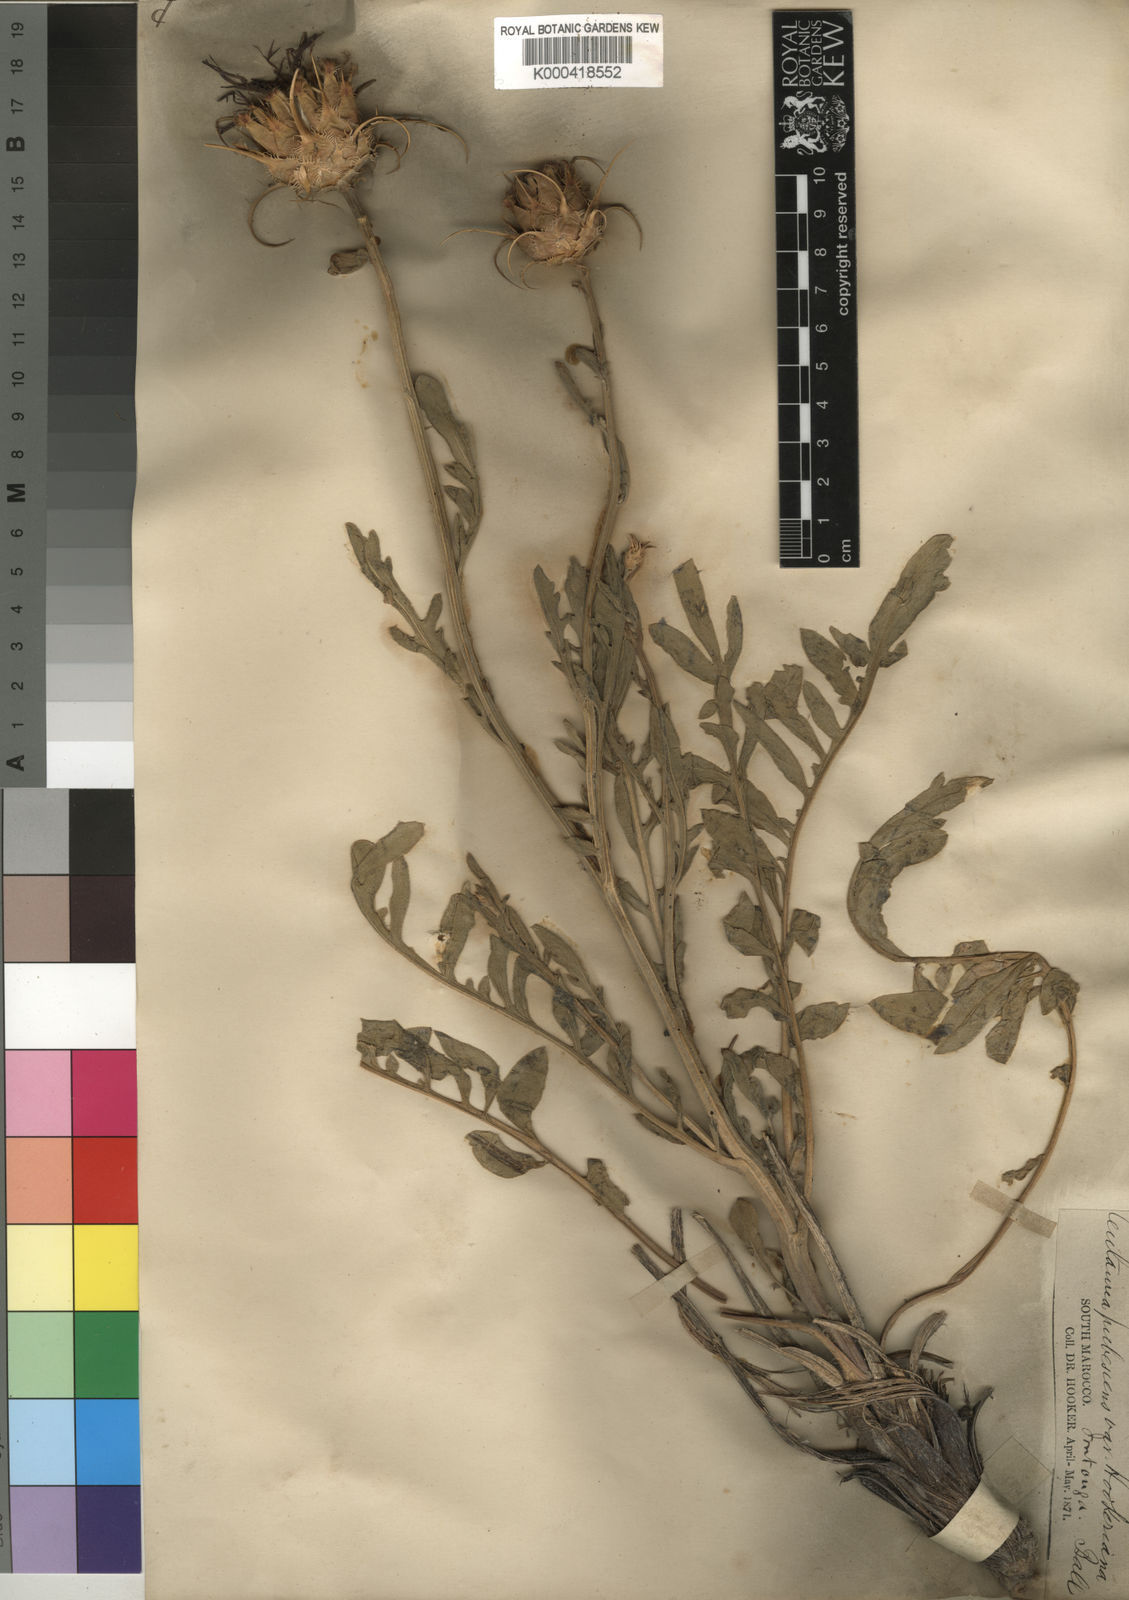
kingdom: Plantae
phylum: Tracheophyta
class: Magnoliopsida
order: Asterales
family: Asteraceae
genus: Centaurea
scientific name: Centaurea
